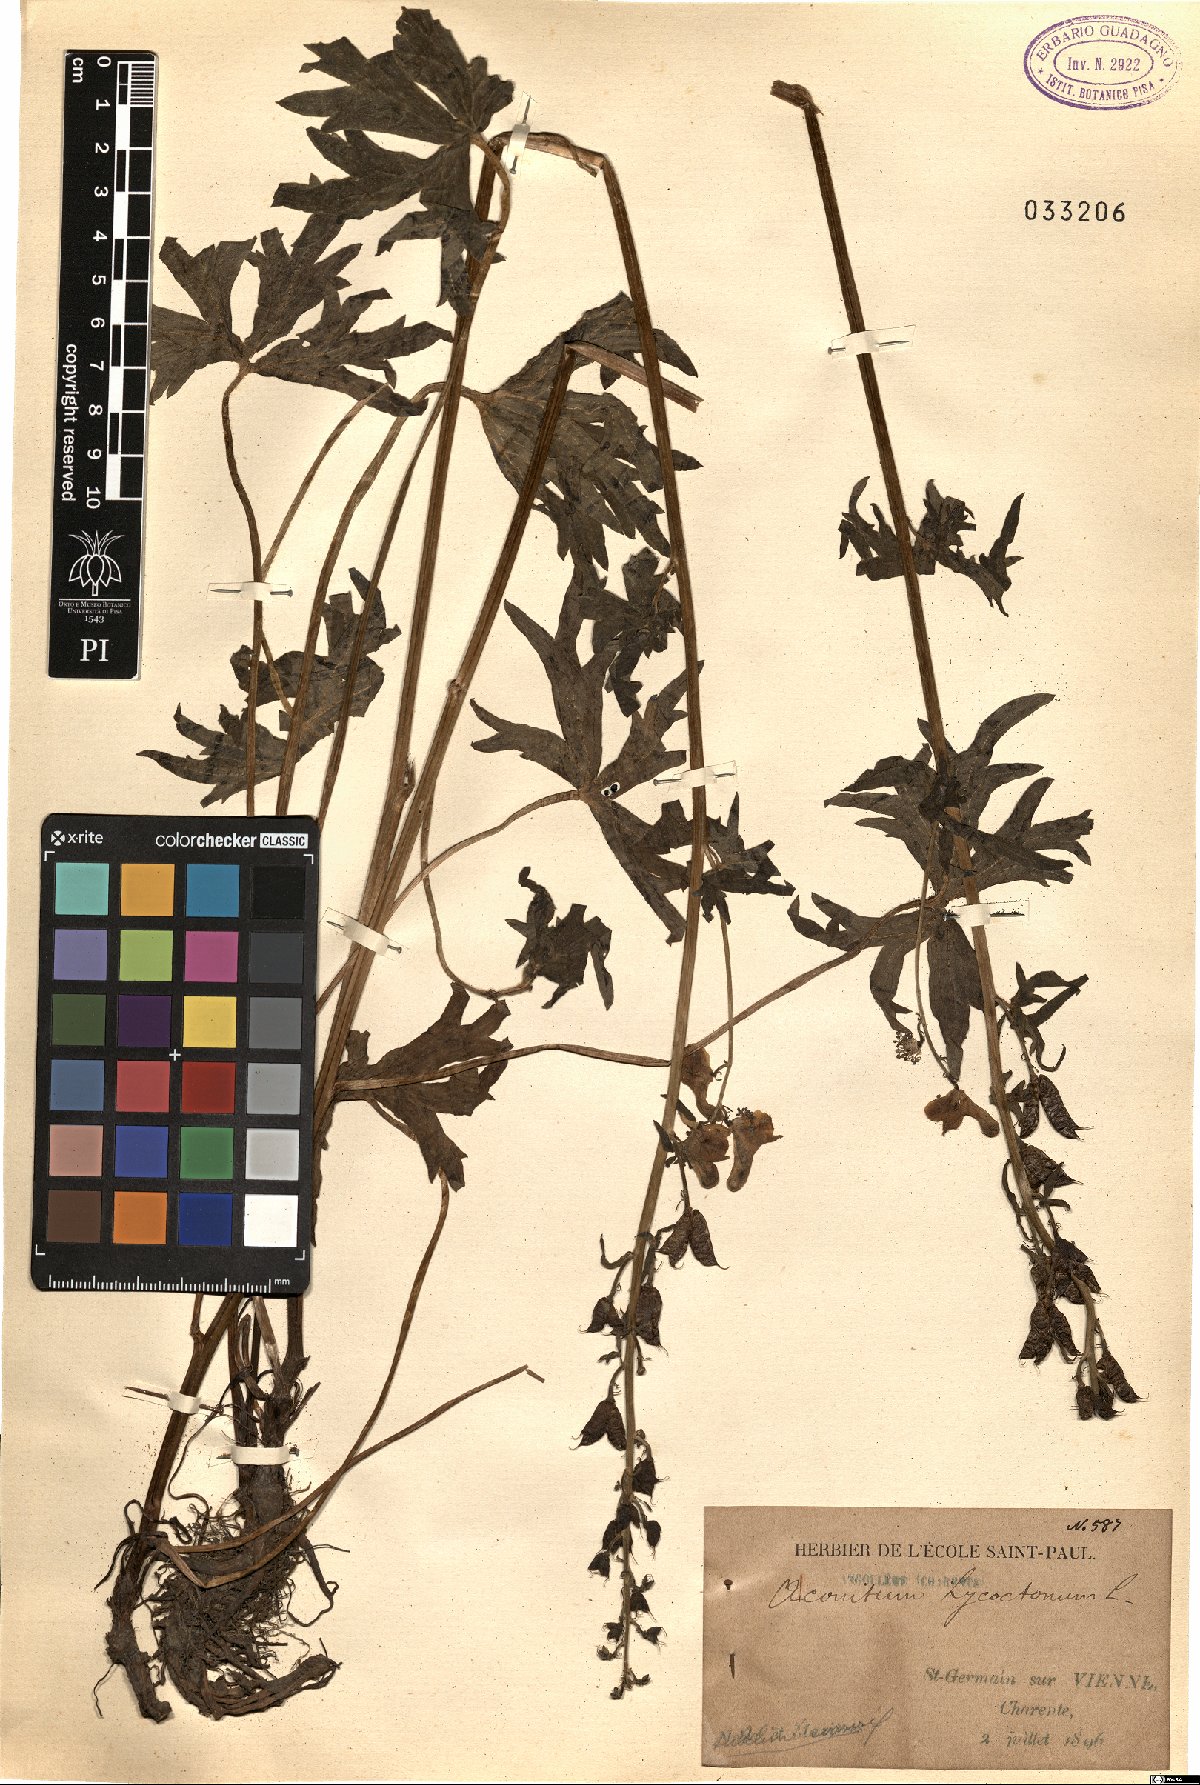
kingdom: Plantae
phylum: Tracheophyta
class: Magnoliopsida
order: Ranunculales
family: Ranunculaceae
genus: Aconitum
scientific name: Aconitum lycoctonum
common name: Wolf's-bane
